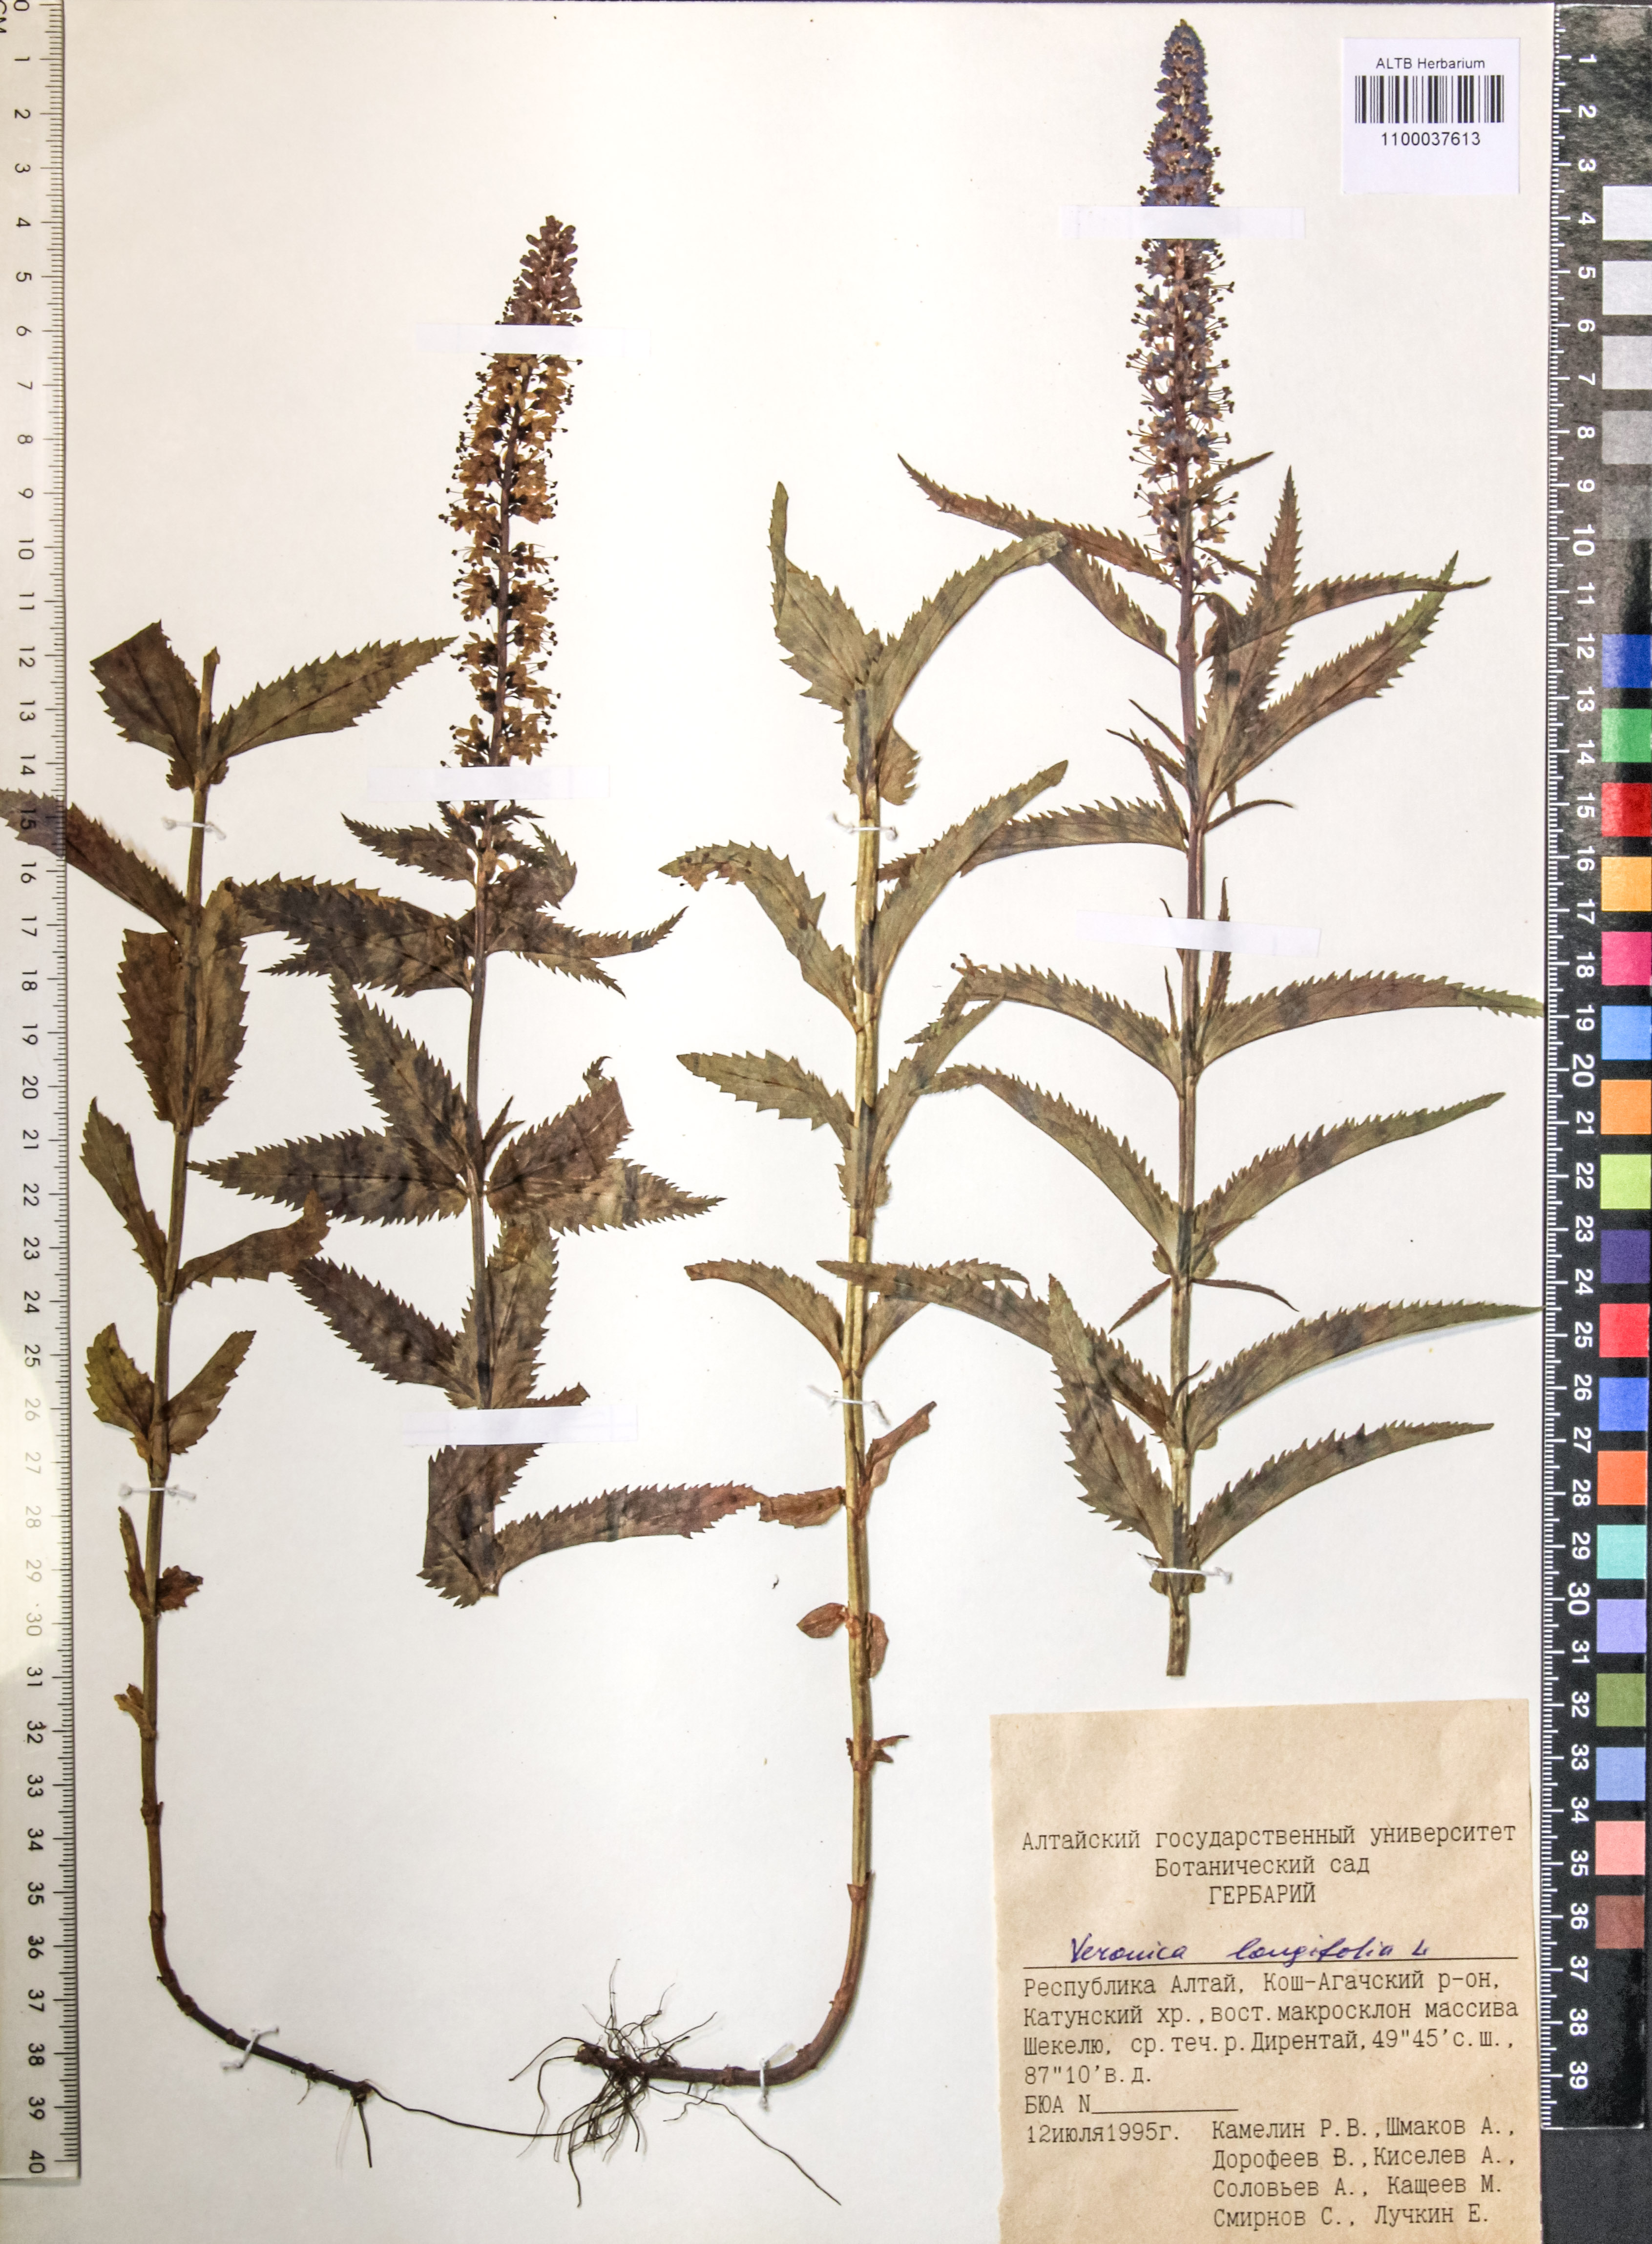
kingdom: Plantae
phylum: Tracheophyta
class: Magnoliopsida
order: Lamiales
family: Plantaginaceae
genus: Veronica
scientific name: Veronica longifolia
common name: Garden speedwell
